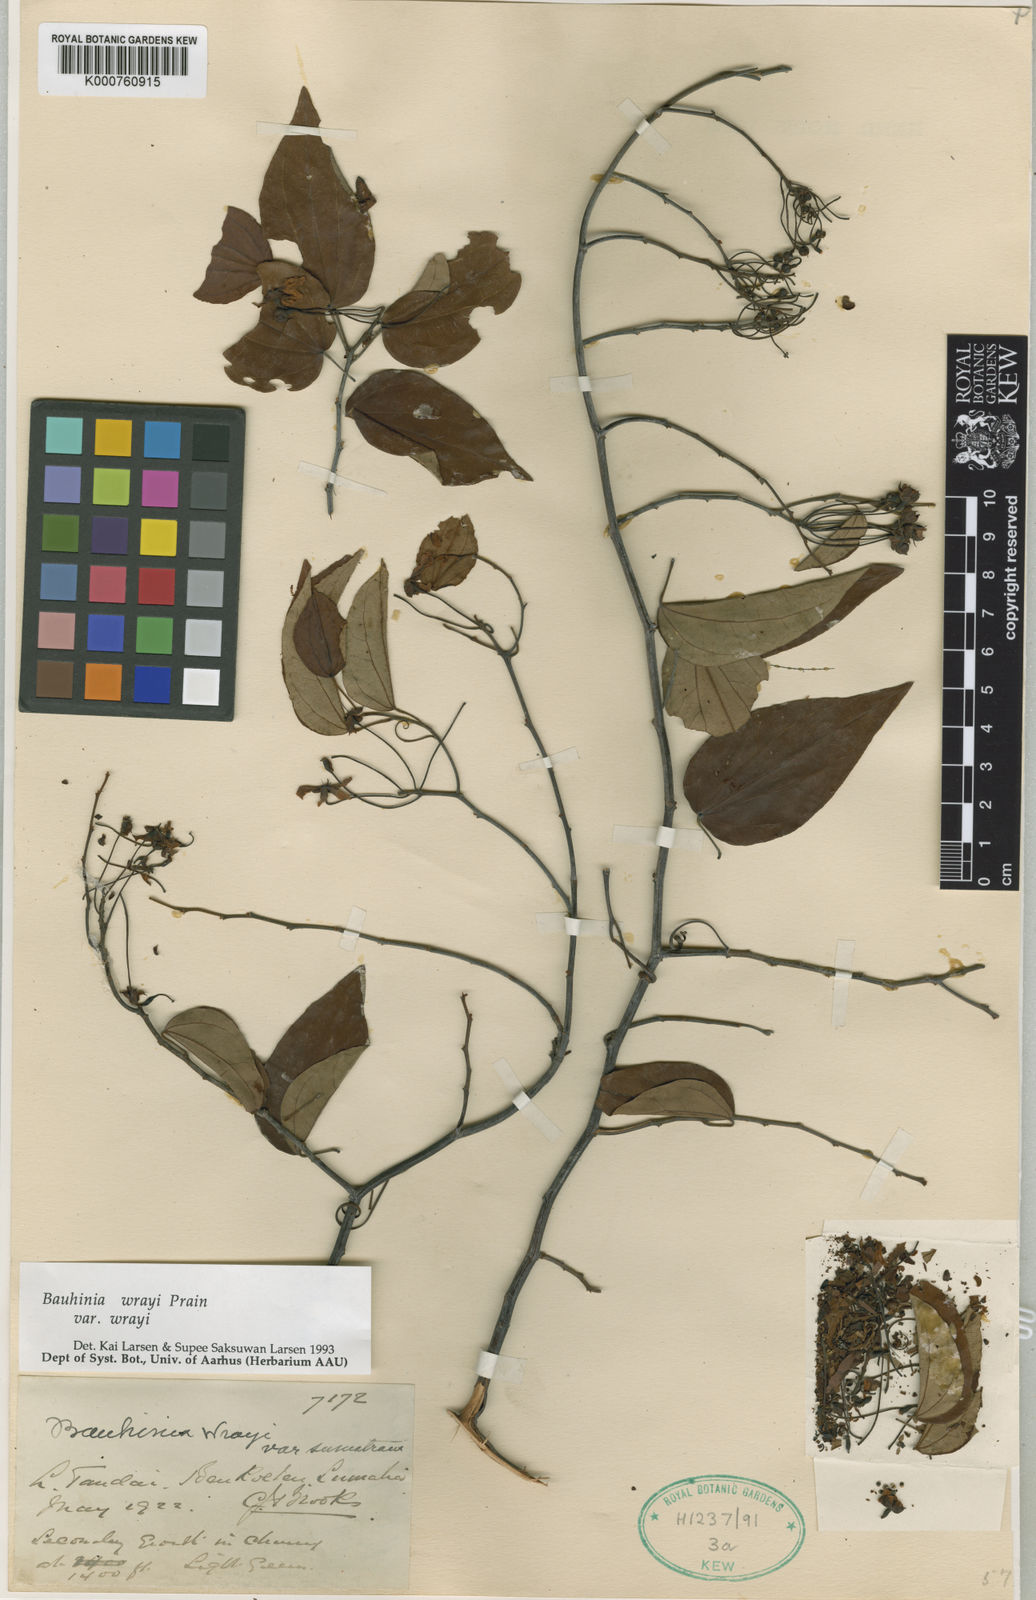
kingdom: Plantae
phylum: Tracheophyta
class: Magnoliopsida
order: Fabales
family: Fabaceae
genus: Phanera
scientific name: Phanera wrayi
